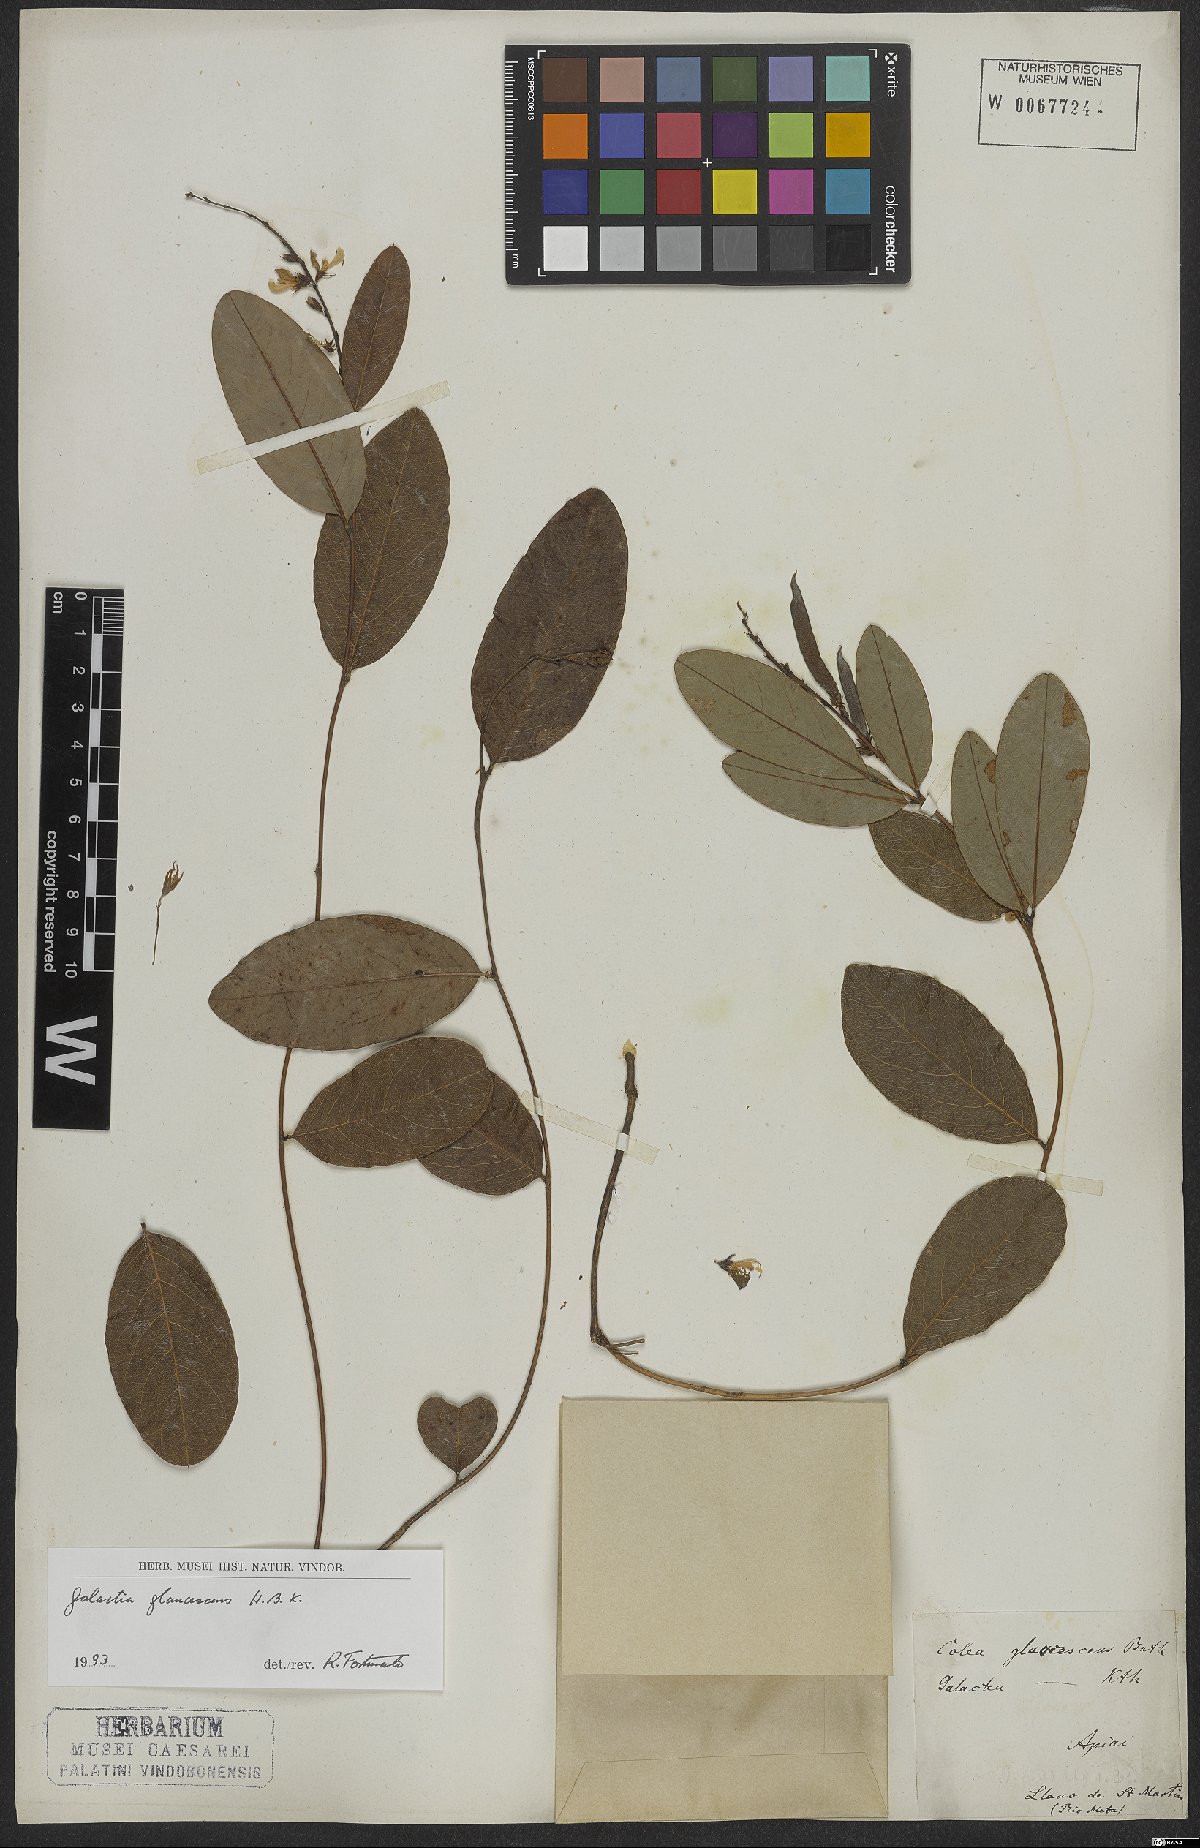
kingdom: Plantae
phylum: Tracheophyta
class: Magnoliopsida
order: Fabales
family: Fabaceae
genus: Galactia
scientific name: Galactia glaucescens
